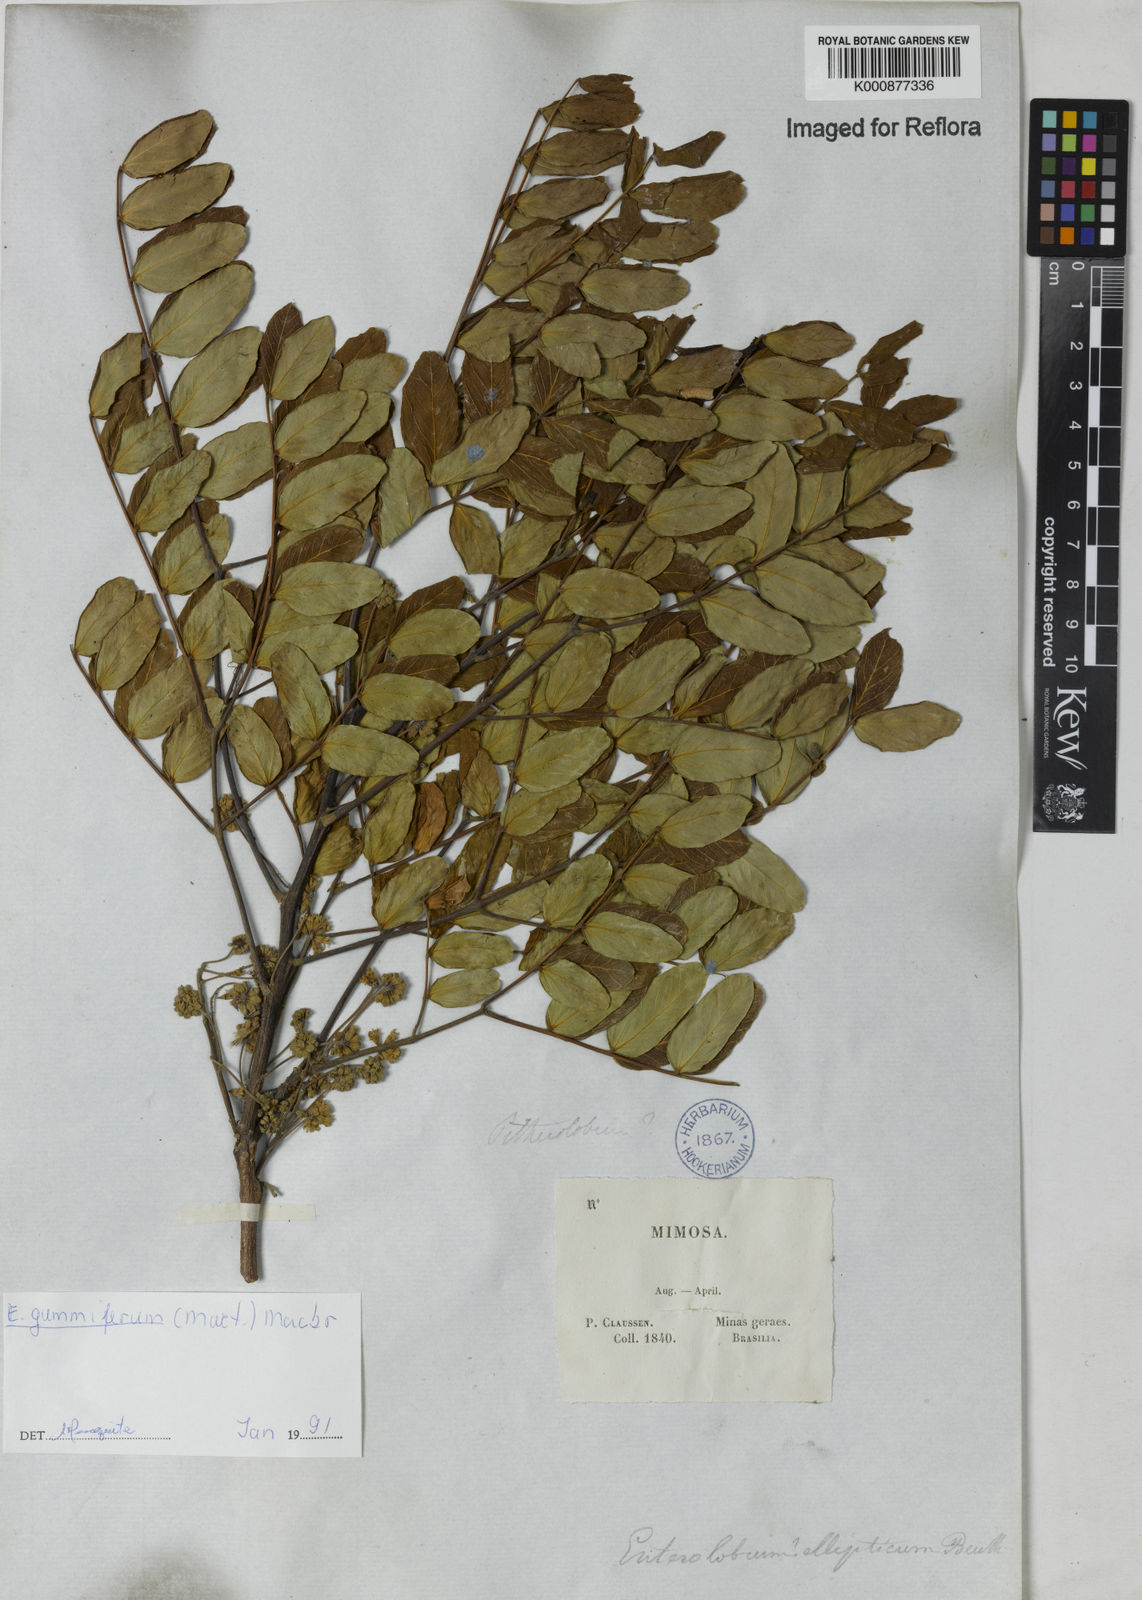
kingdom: Plantae
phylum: Tracheophyta
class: Magnoliopsida
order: Fabales
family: Fabaceae
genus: Enterolobium
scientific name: Enterolobium gummiferum
